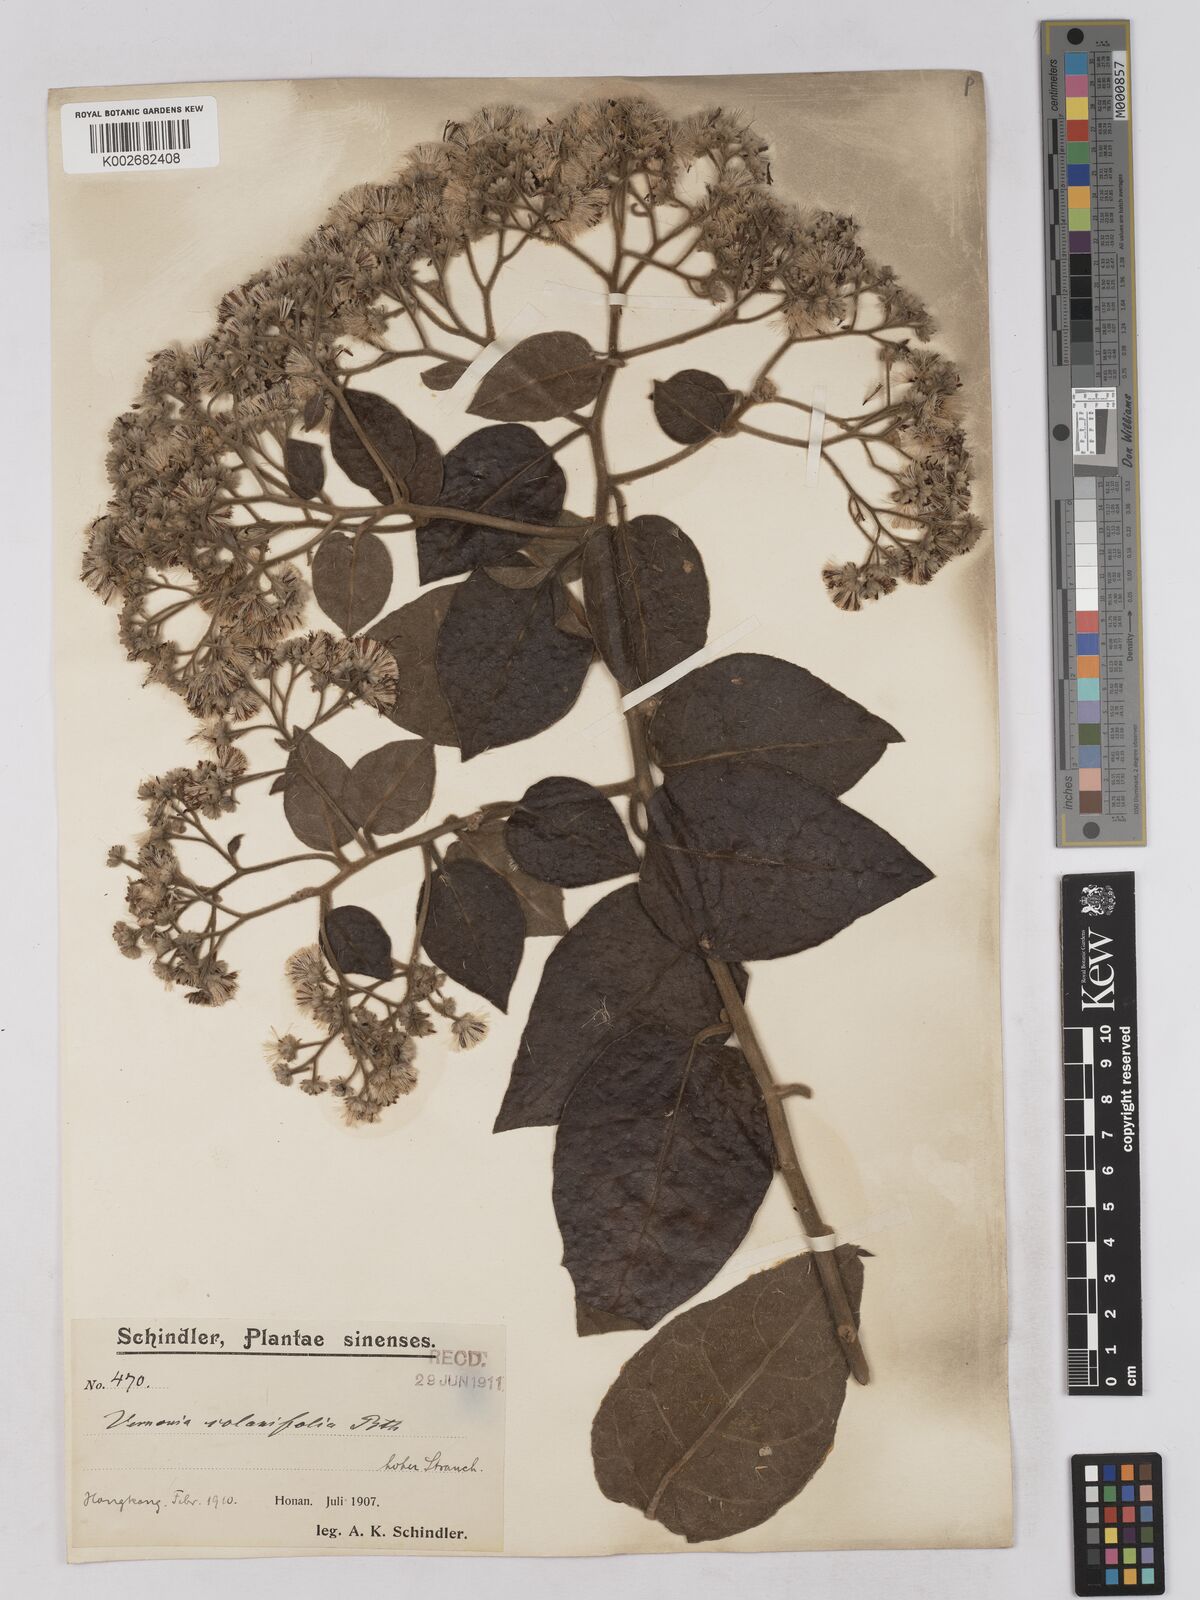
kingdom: Plantae
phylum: Tracheophyta
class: Magnoliopsida
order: Asterales
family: Asteraceae
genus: Strobocalyx
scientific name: Strobocalyx solanifolia
